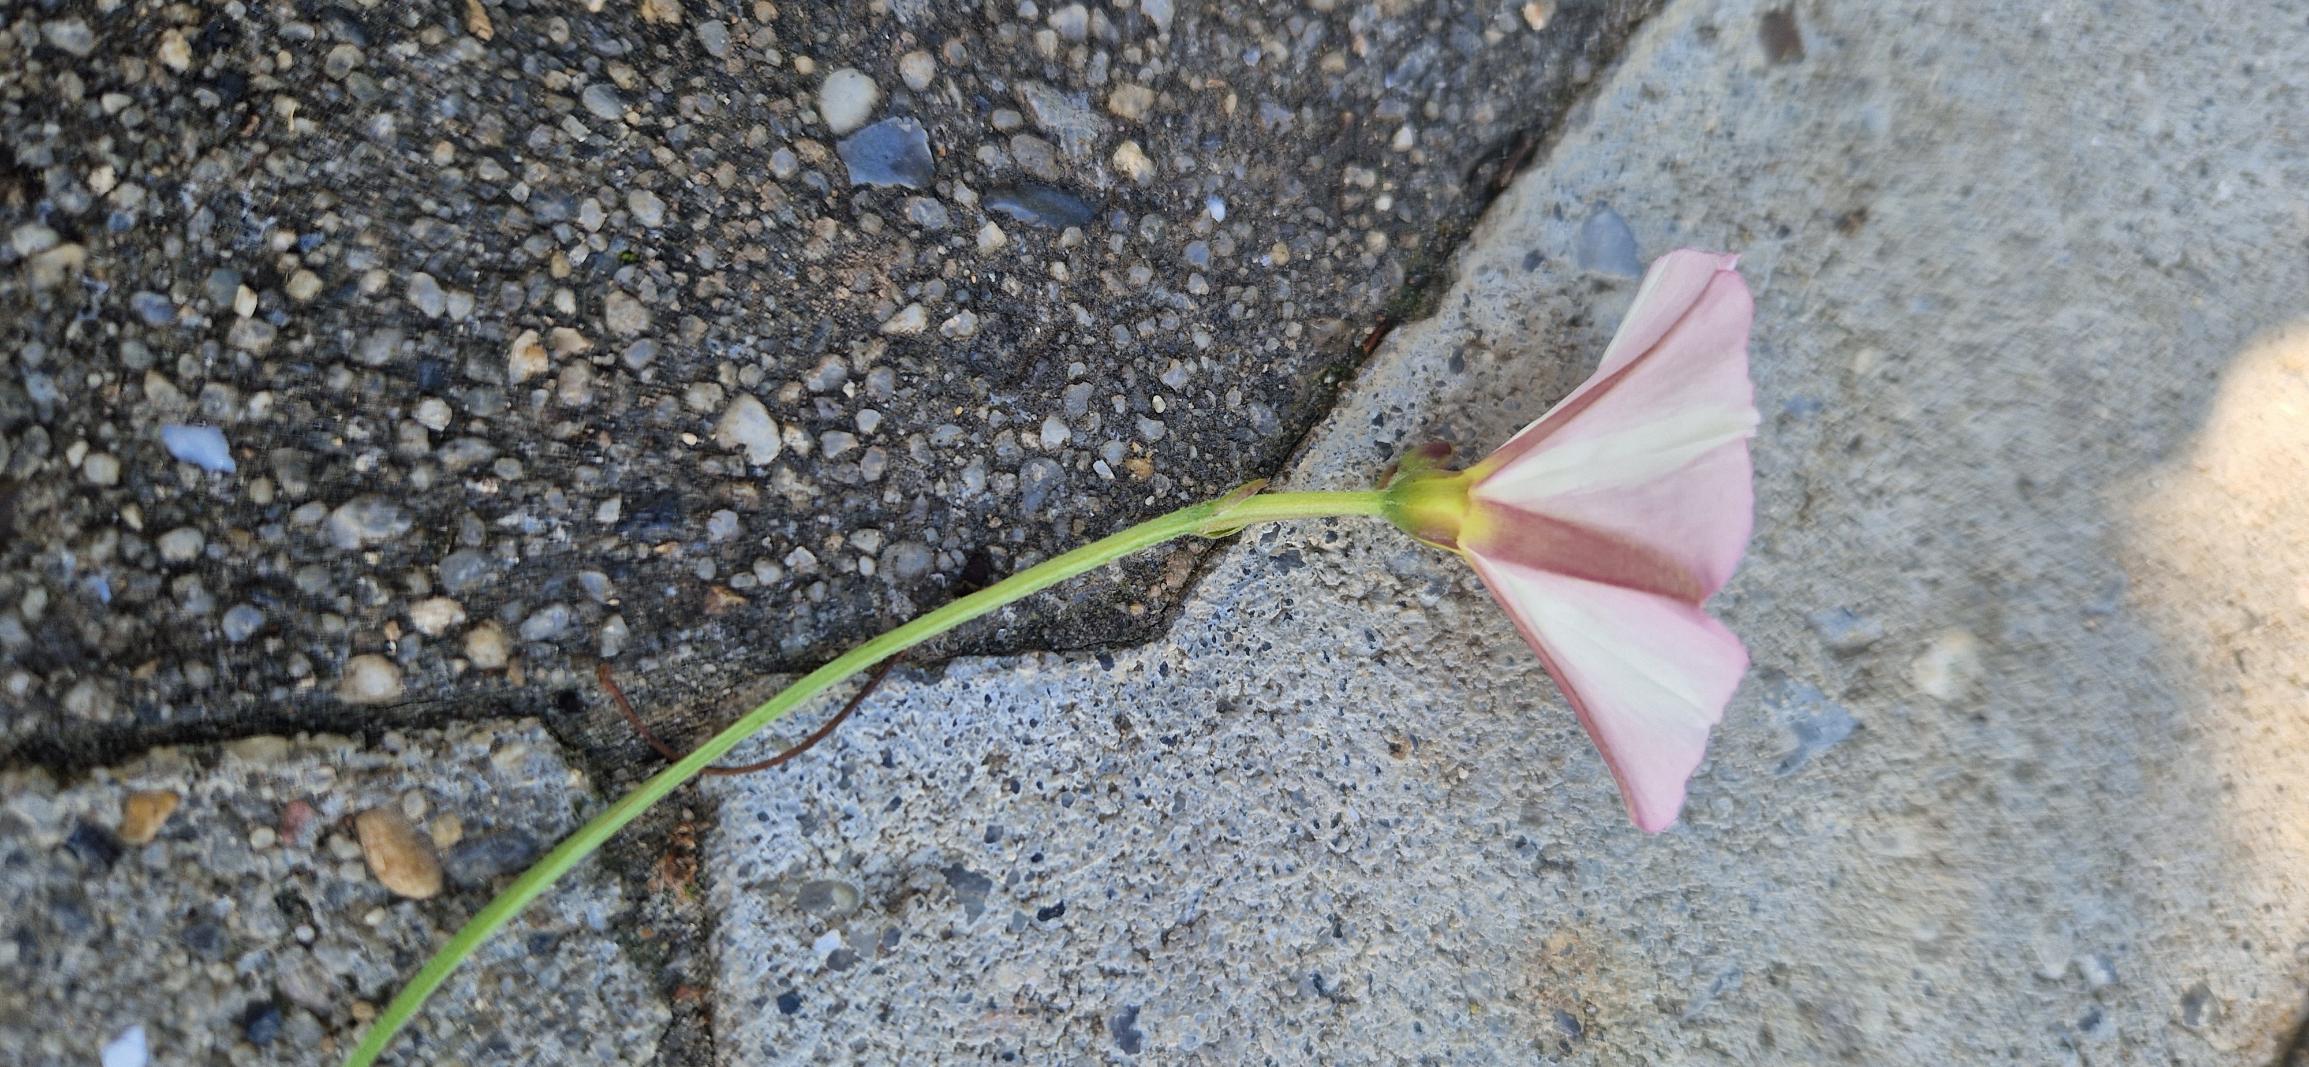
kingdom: Plantae
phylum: Tracheophyta
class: Magnoliopsida
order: Solanales
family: Convolvulaceae
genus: Convolvulus
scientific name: Convolvulus arvensis
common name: Ager-snerle
